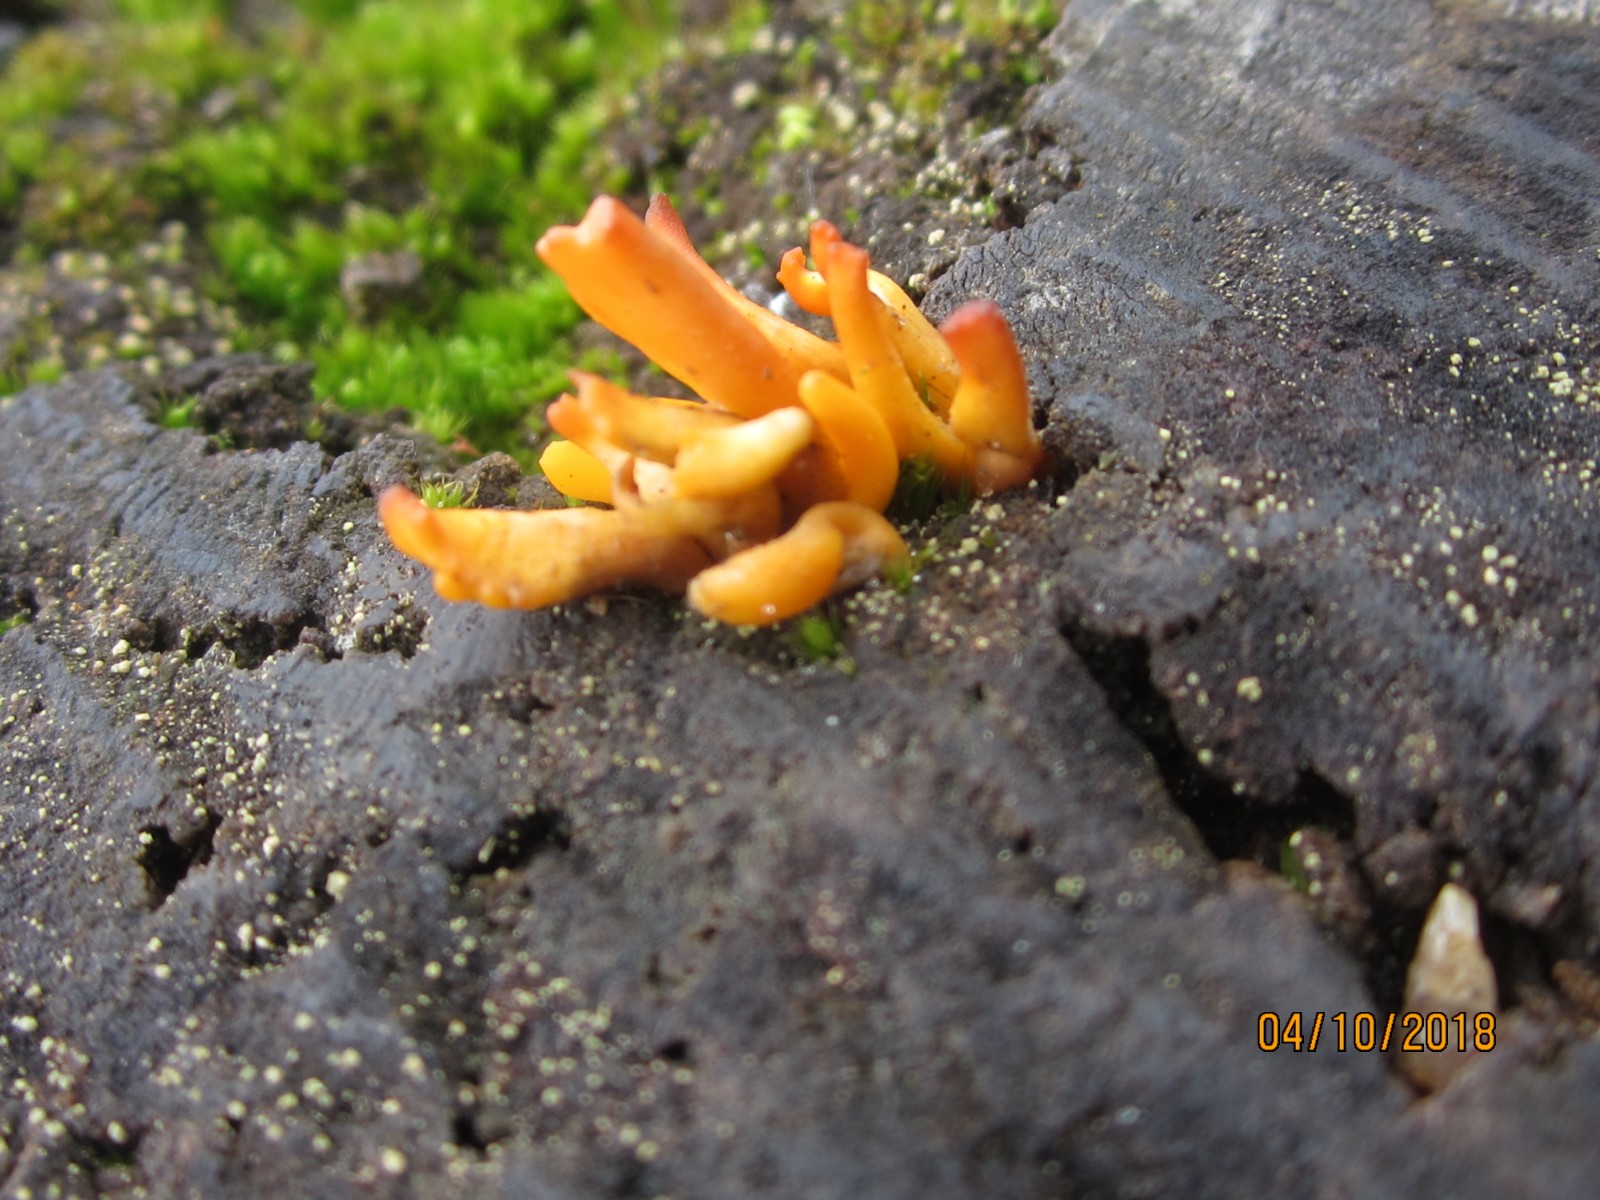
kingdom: Fungi
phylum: Basidiomycota
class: Dacrymycetes
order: Dacrymycetales
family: Dacrymycetaceae
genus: Calocera
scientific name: Calocera cornea
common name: liden guldgaffel
